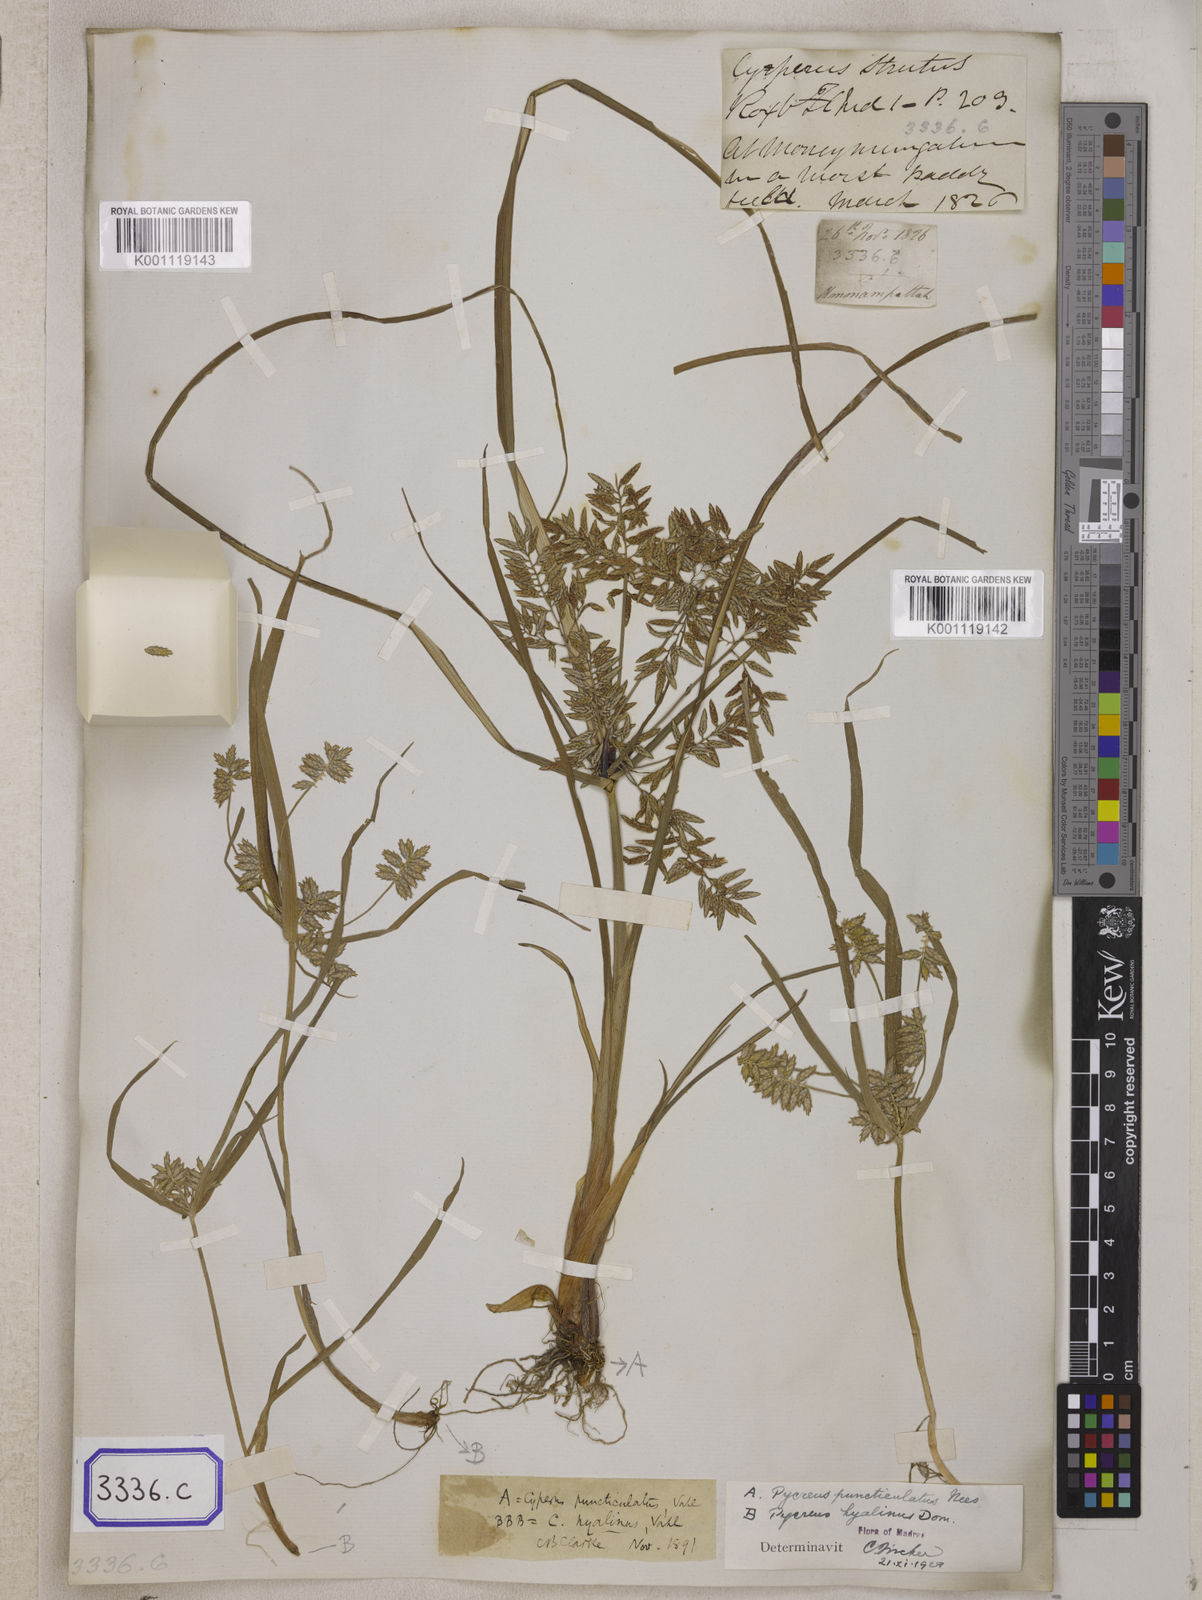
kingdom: Plantae
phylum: Tracheophyta
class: Liliopsida
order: Poales
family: Cyperaceae
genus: Cyperus
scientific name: Cyperus
